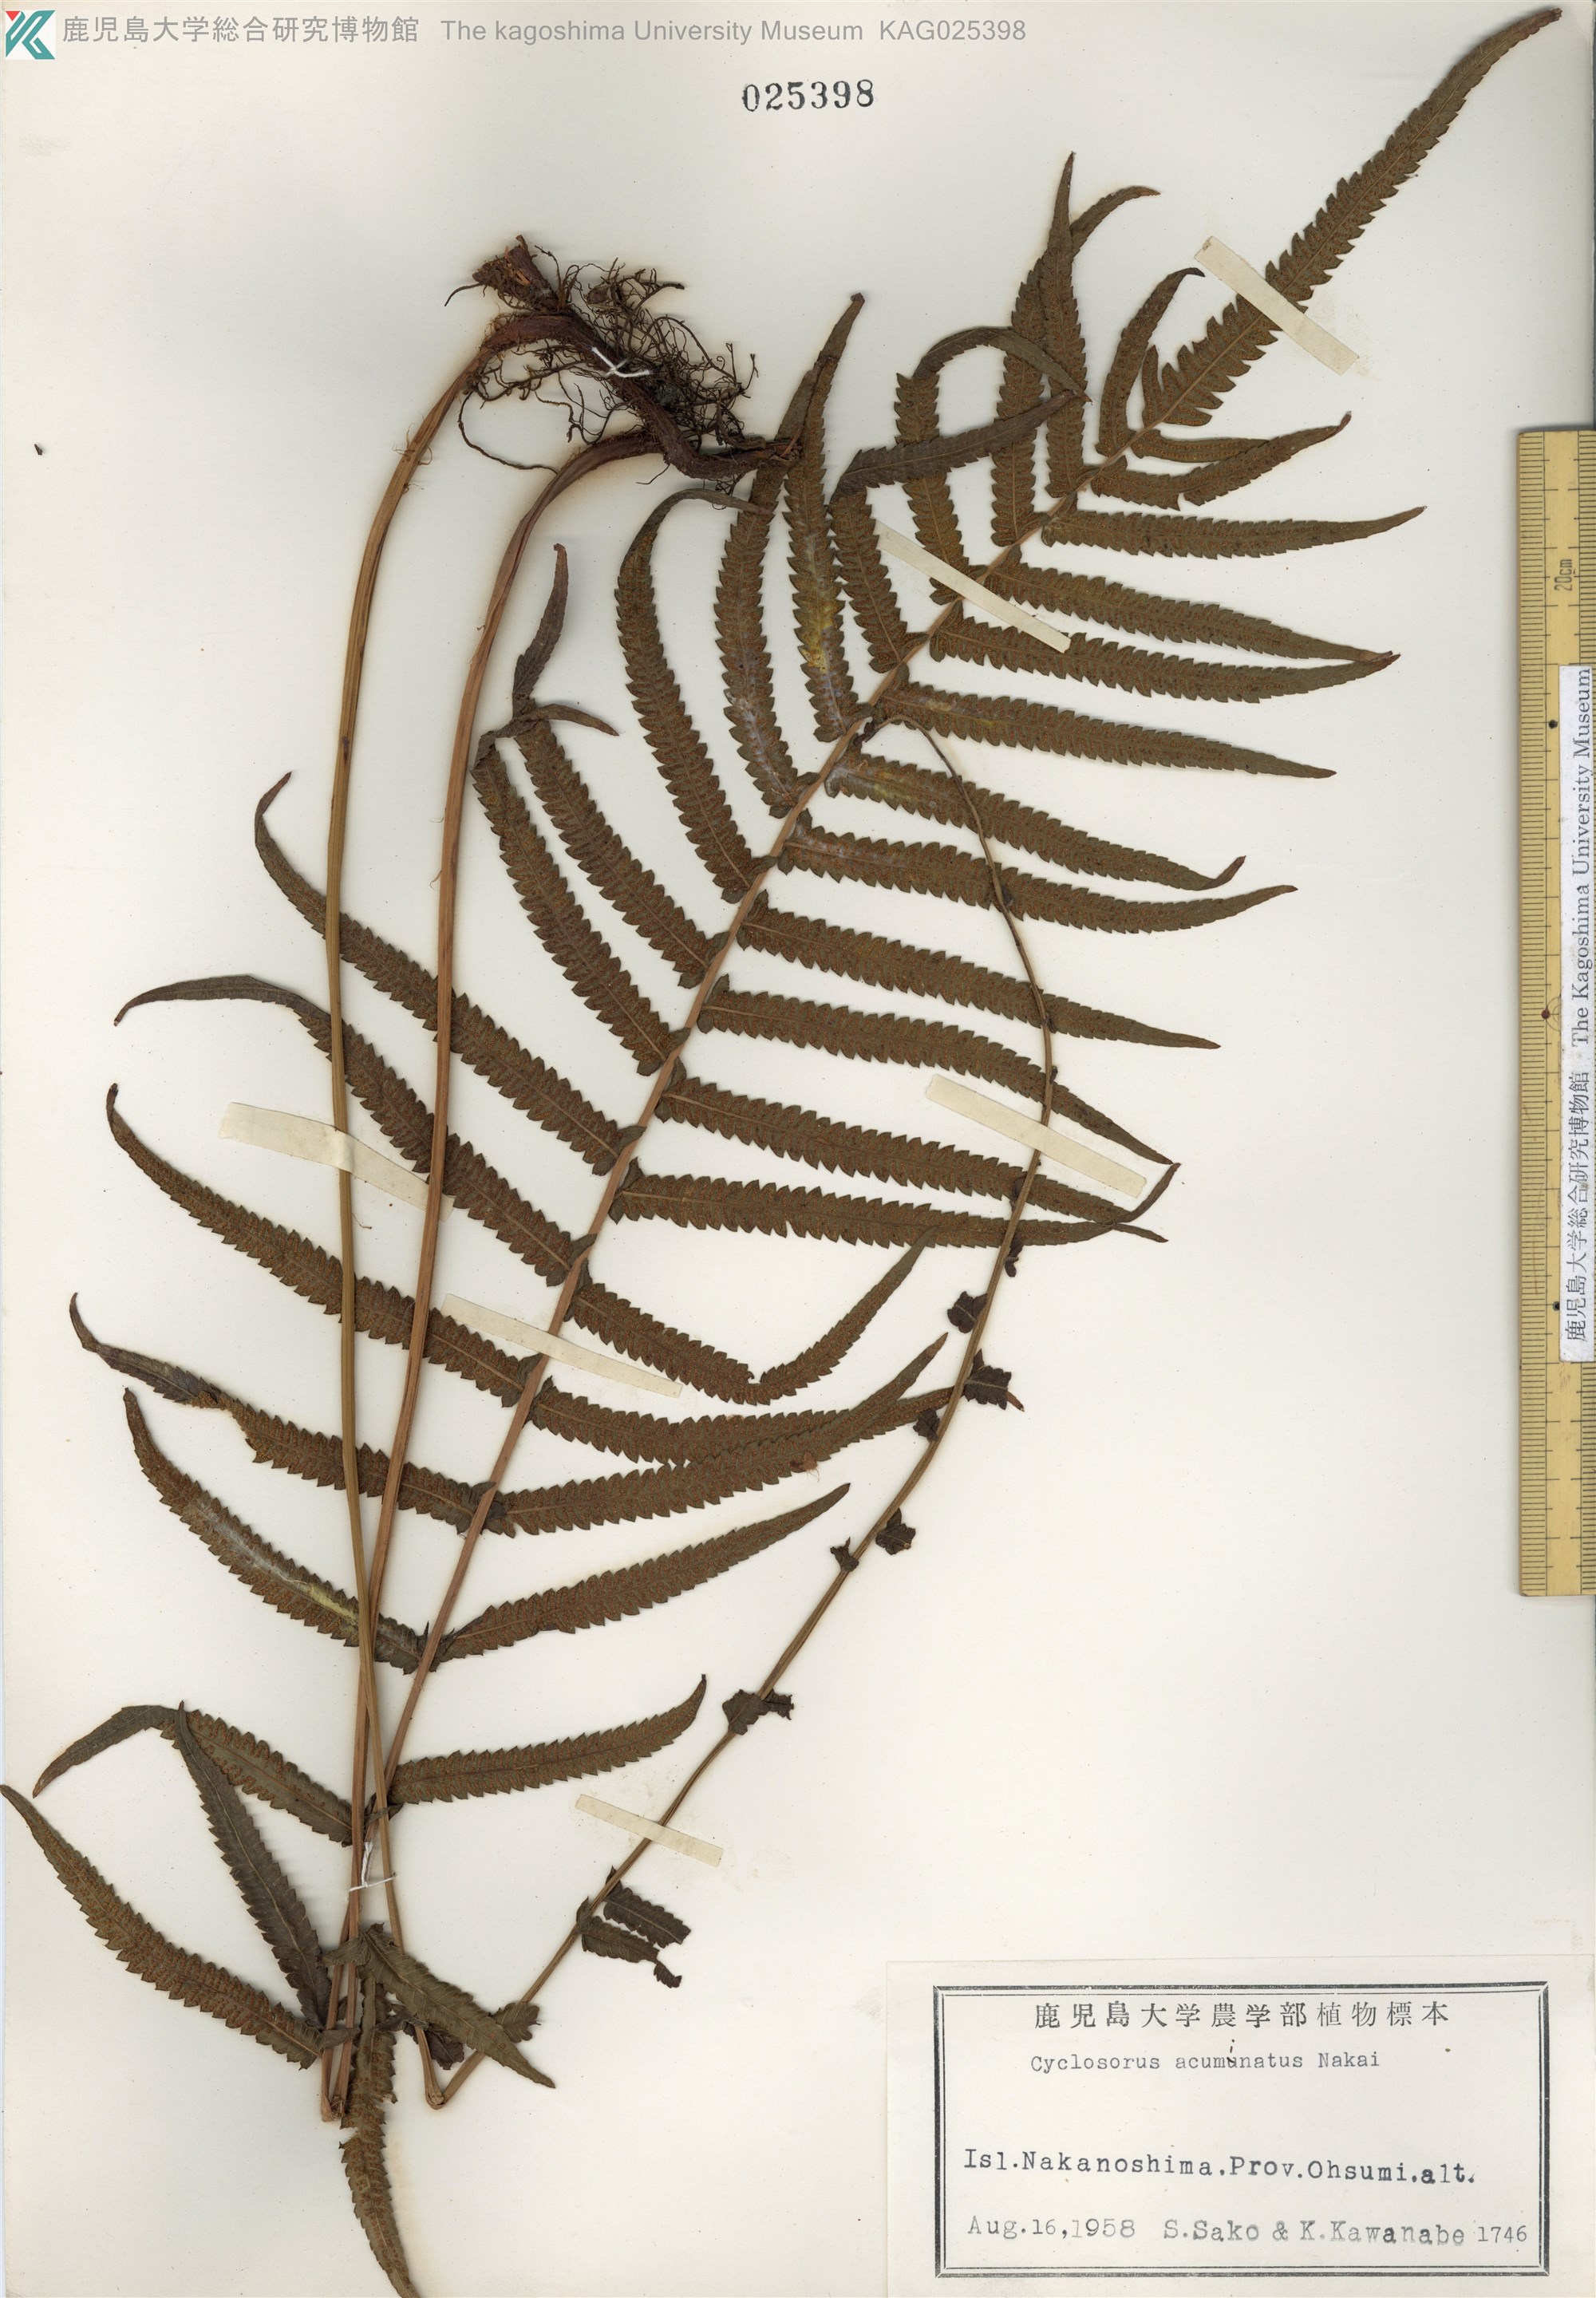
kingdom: Plantae
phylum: Tracheophyta
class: Polypodiopsida
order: Polypodiales
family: Thelypteridaceae
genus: Christella
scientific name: Christella acuminata
